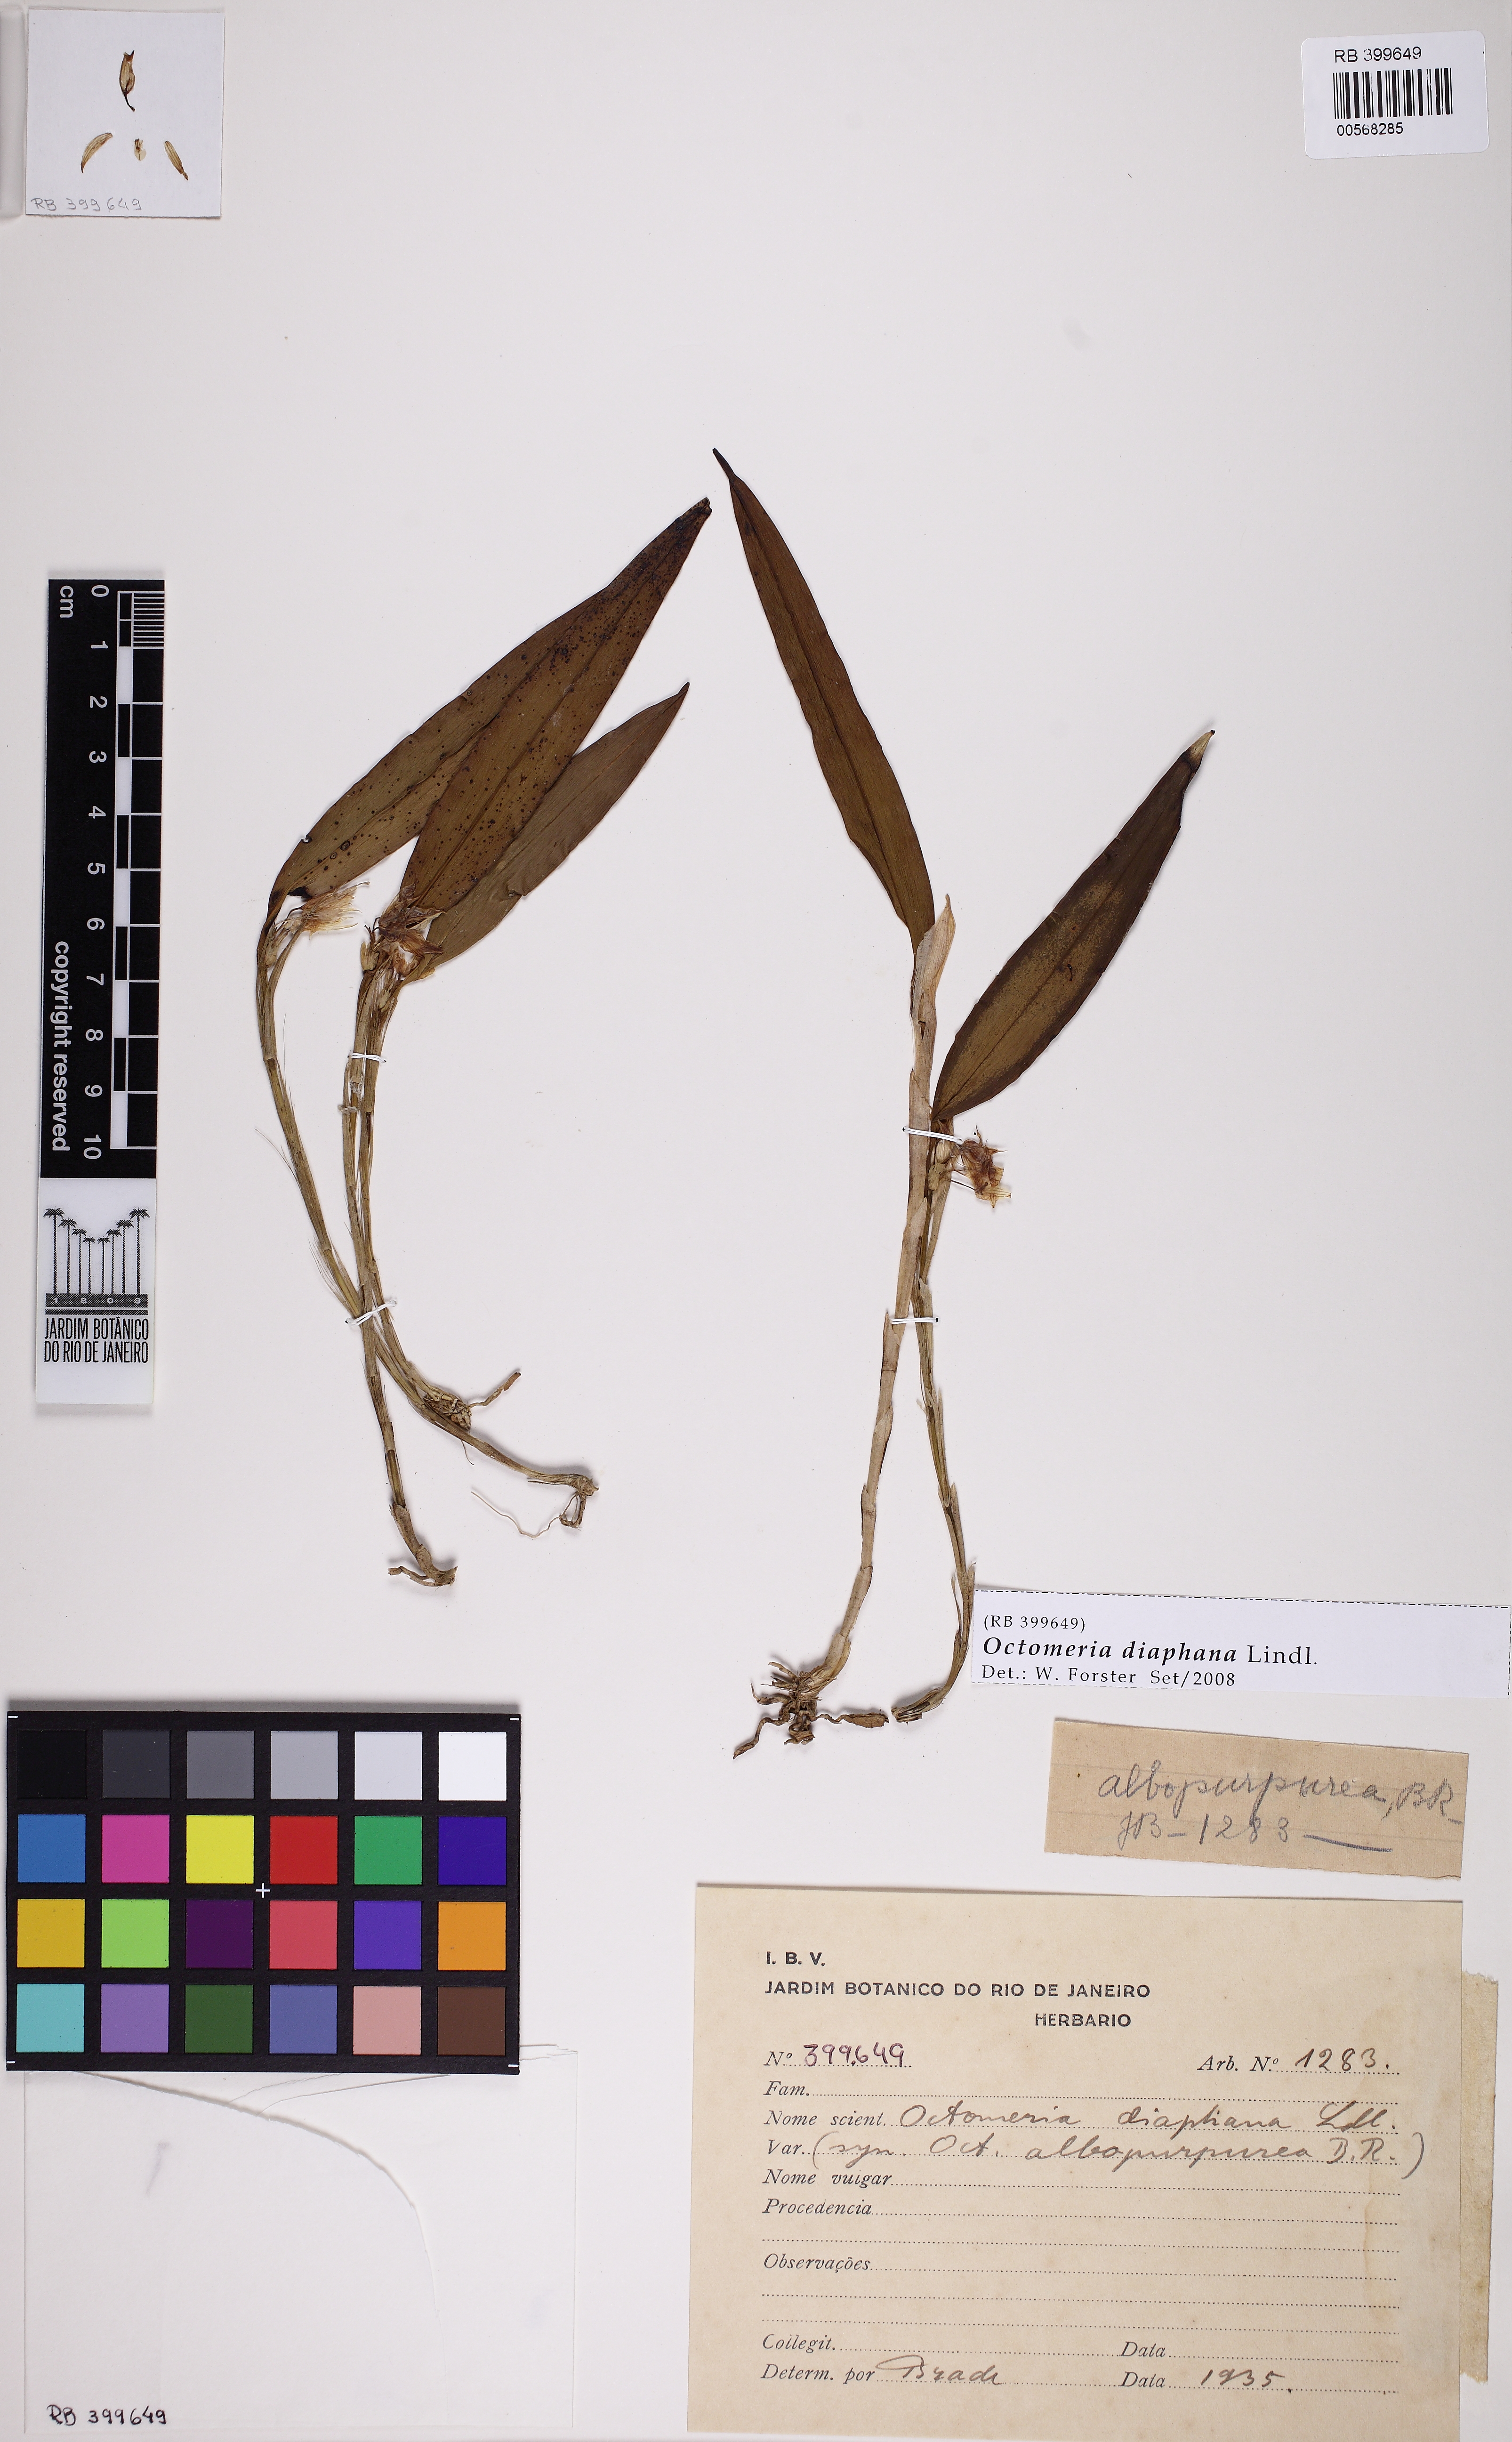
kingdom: Plantae
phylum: Tracheophyta
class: Liliopsida
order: Asparagales
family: Orchidaceae
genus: Octomeria
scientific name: Octomeria diaphana
